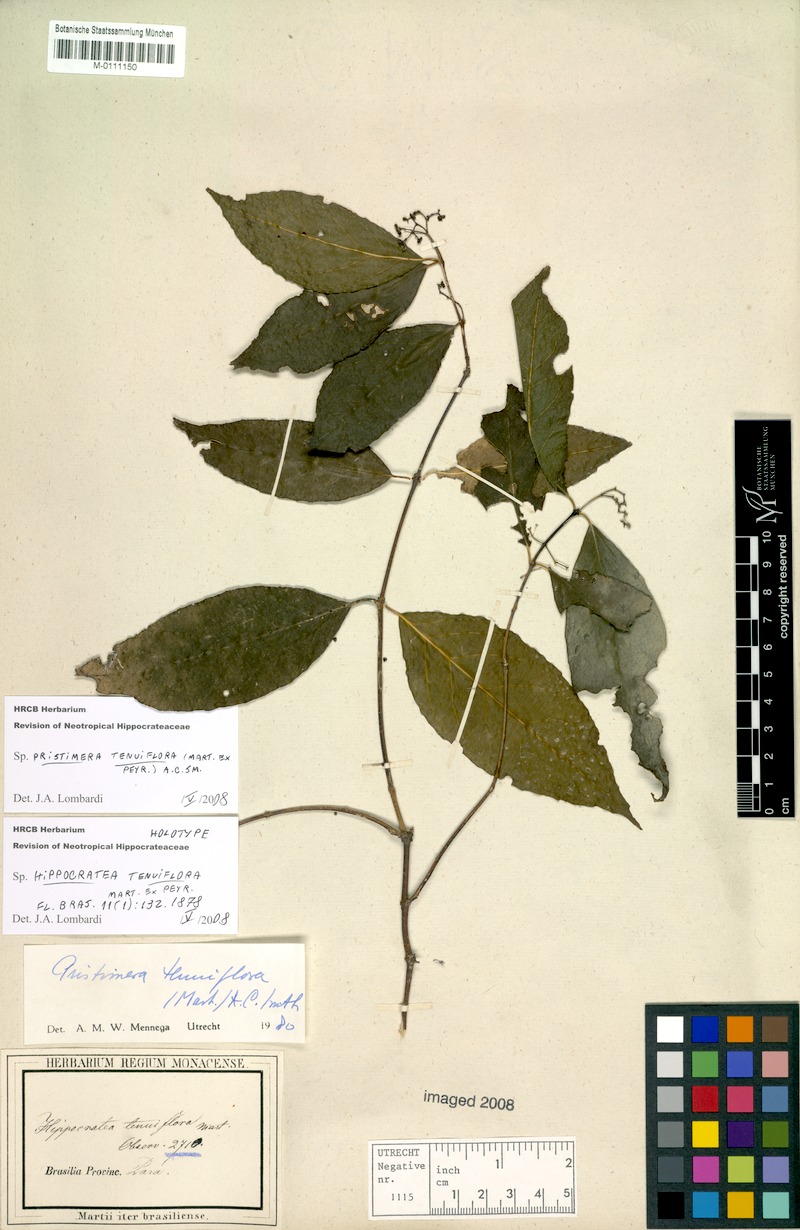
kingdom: Plantae
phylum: Tracheophyta
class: Magnoliopsida
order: Celastrales
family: Celastraceae
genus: Pristimera
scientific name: Pristimera tenuiflora
